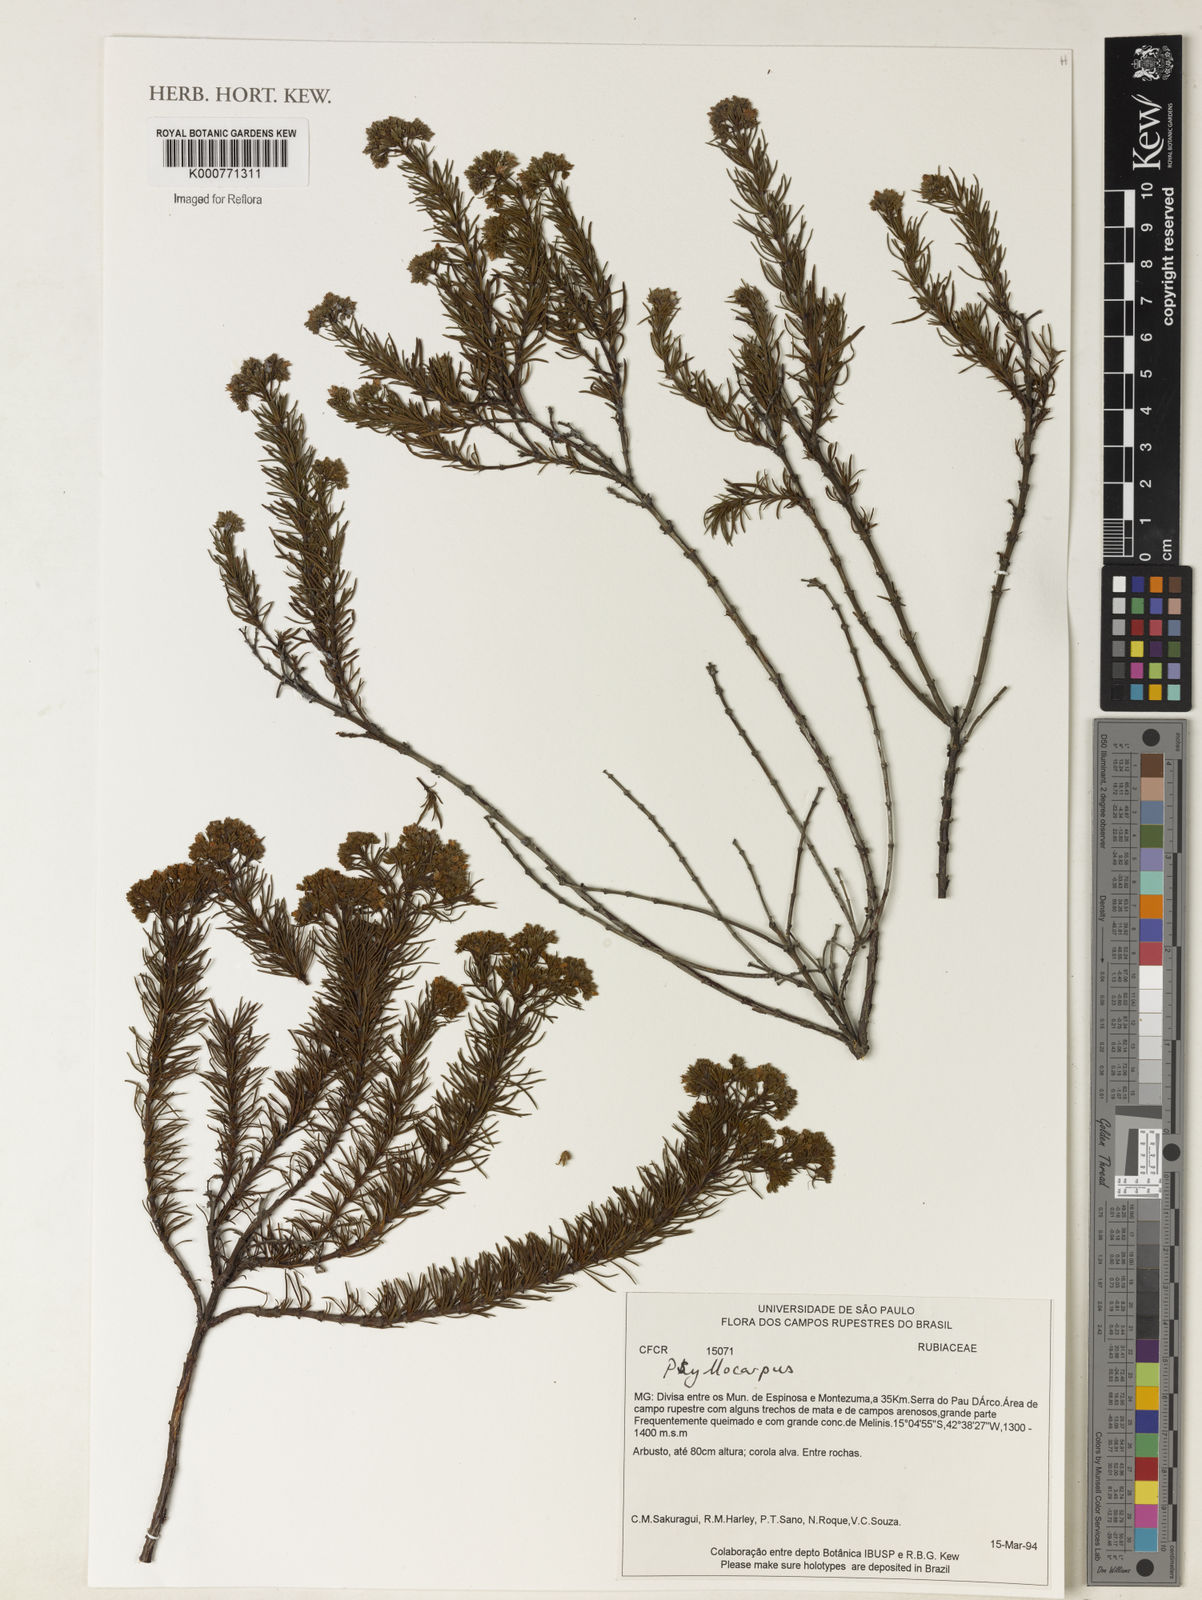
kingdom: Plantae
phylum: Tracheophyta
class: Magnoliopsida
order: Gentianales
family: Rubiaceae
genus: Psyllocarpus
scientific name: Psyllocarpus
